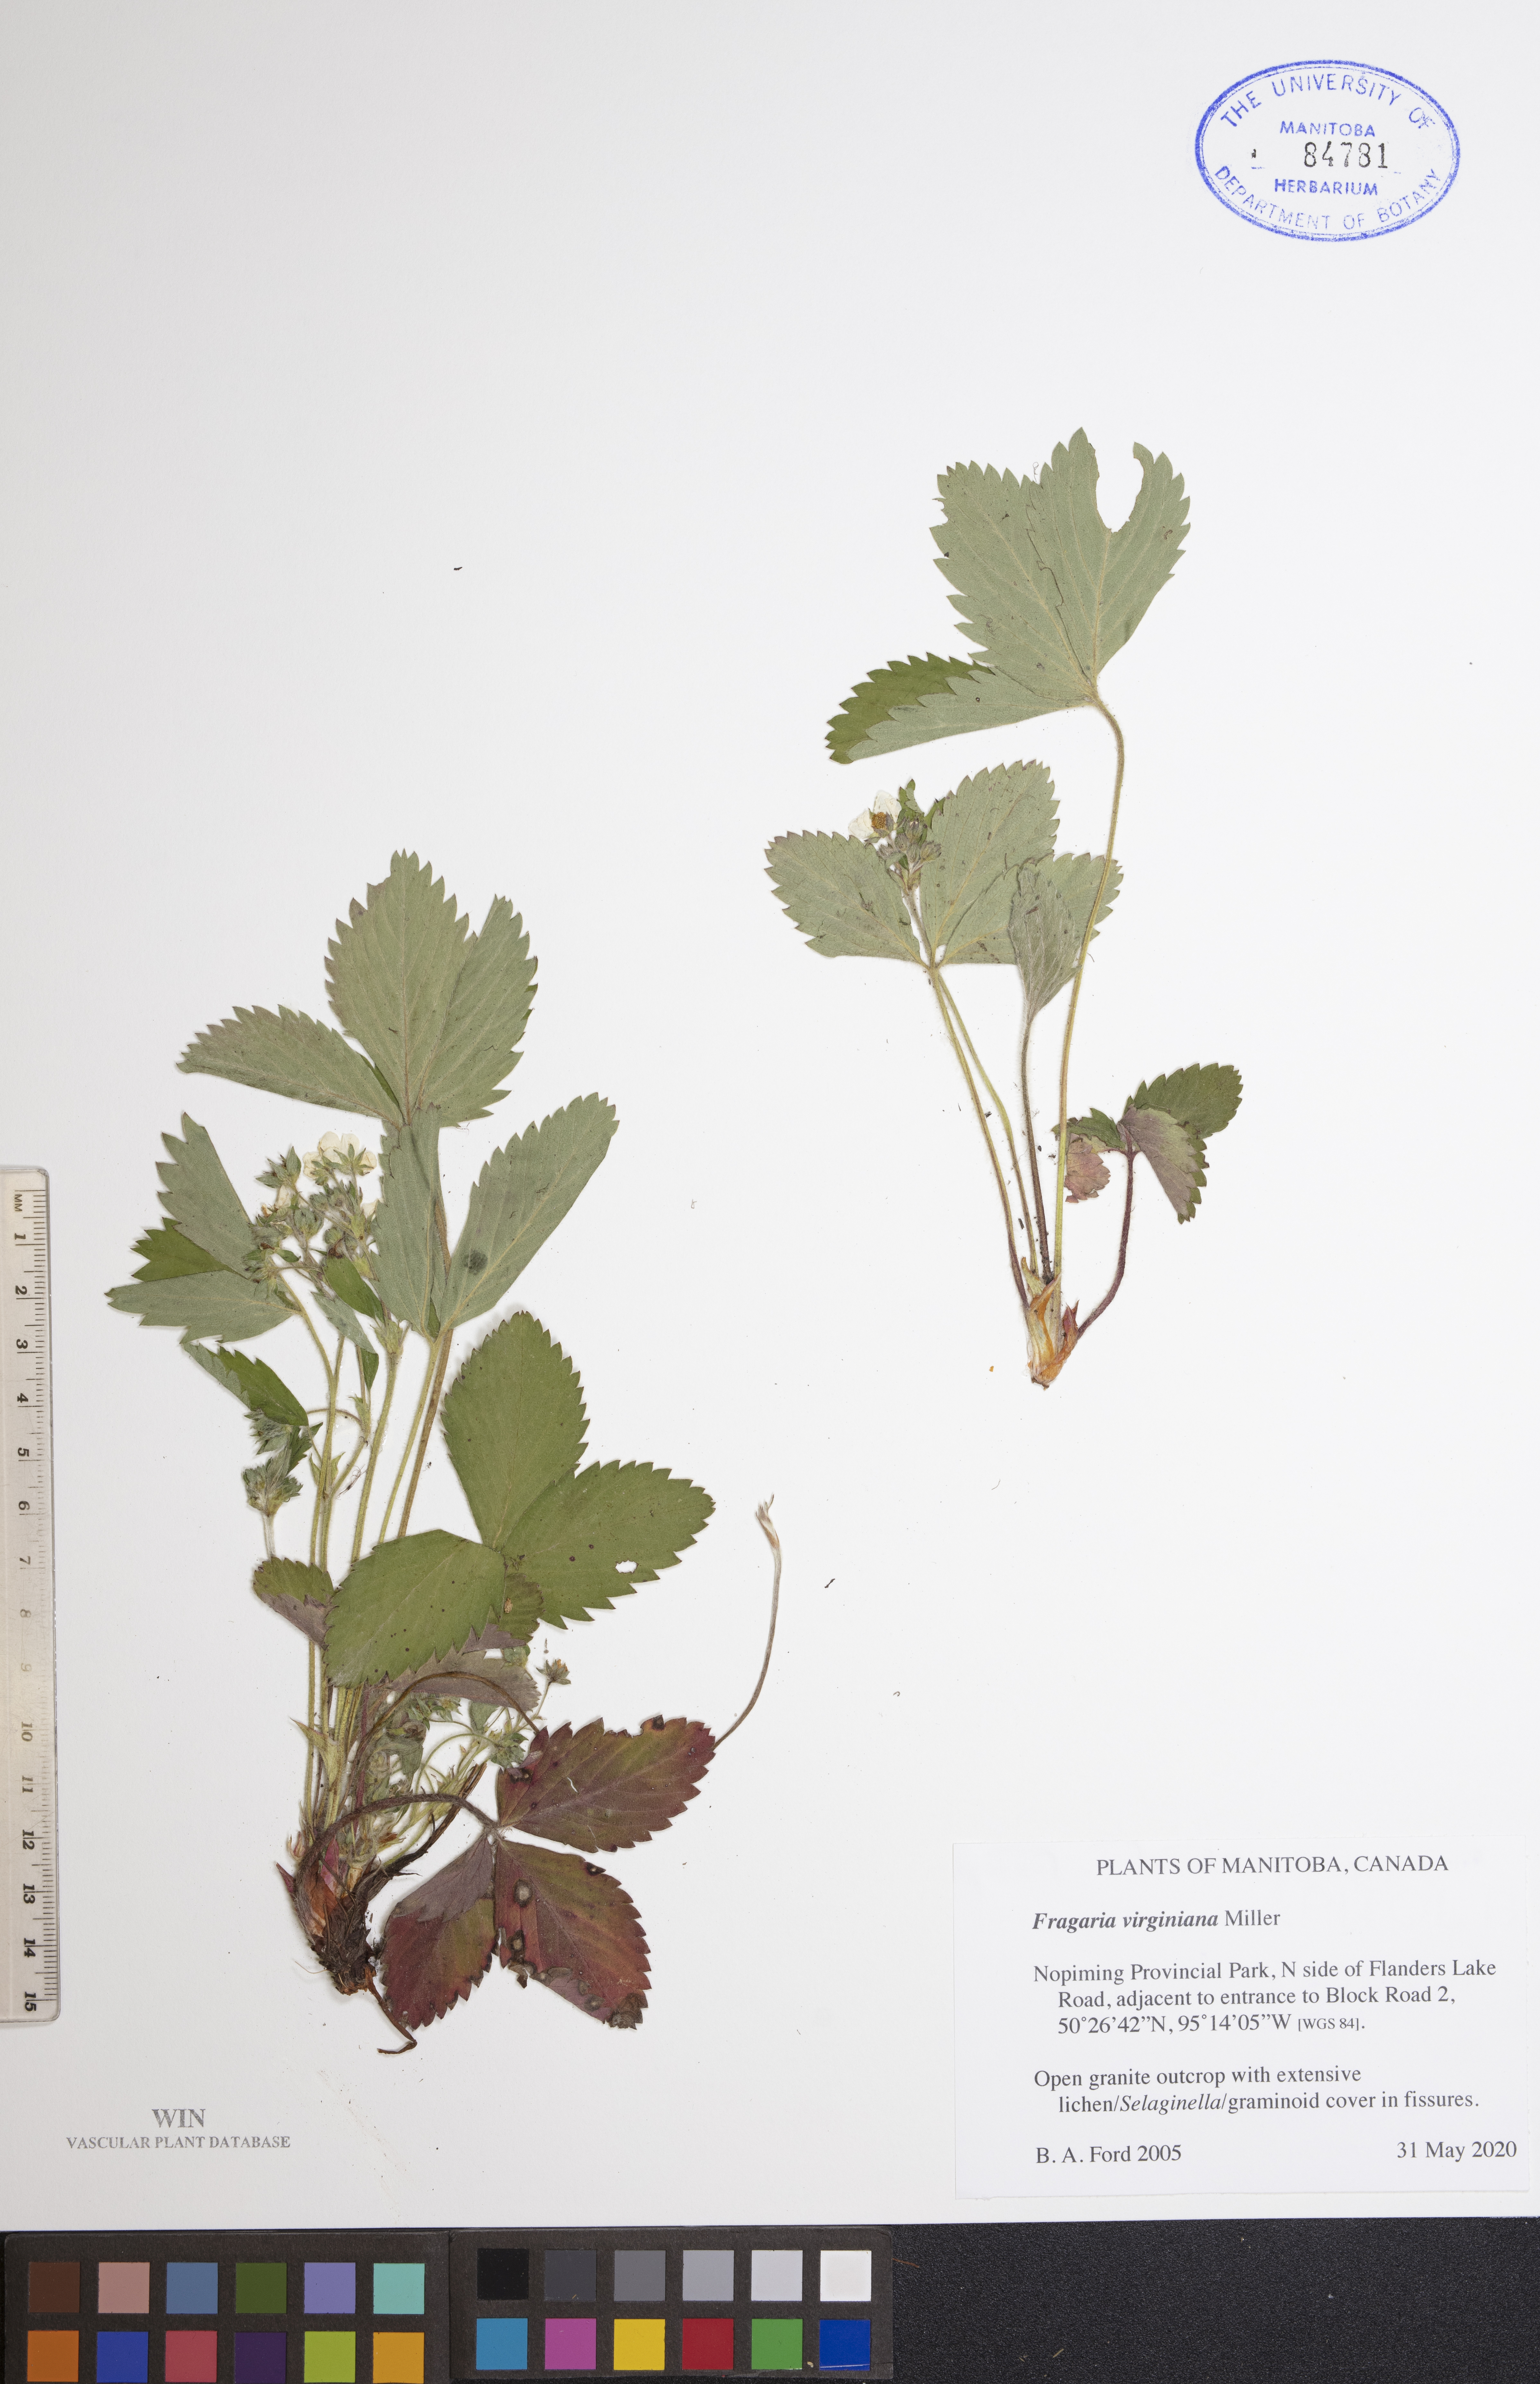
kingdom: Plantae
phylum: Tracheophyta
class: Magnoliopsida
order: Rosales
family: Rosaceae
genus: Fragaria
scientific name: Fragaria virginiana
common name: Thickleaved wild strawberry
